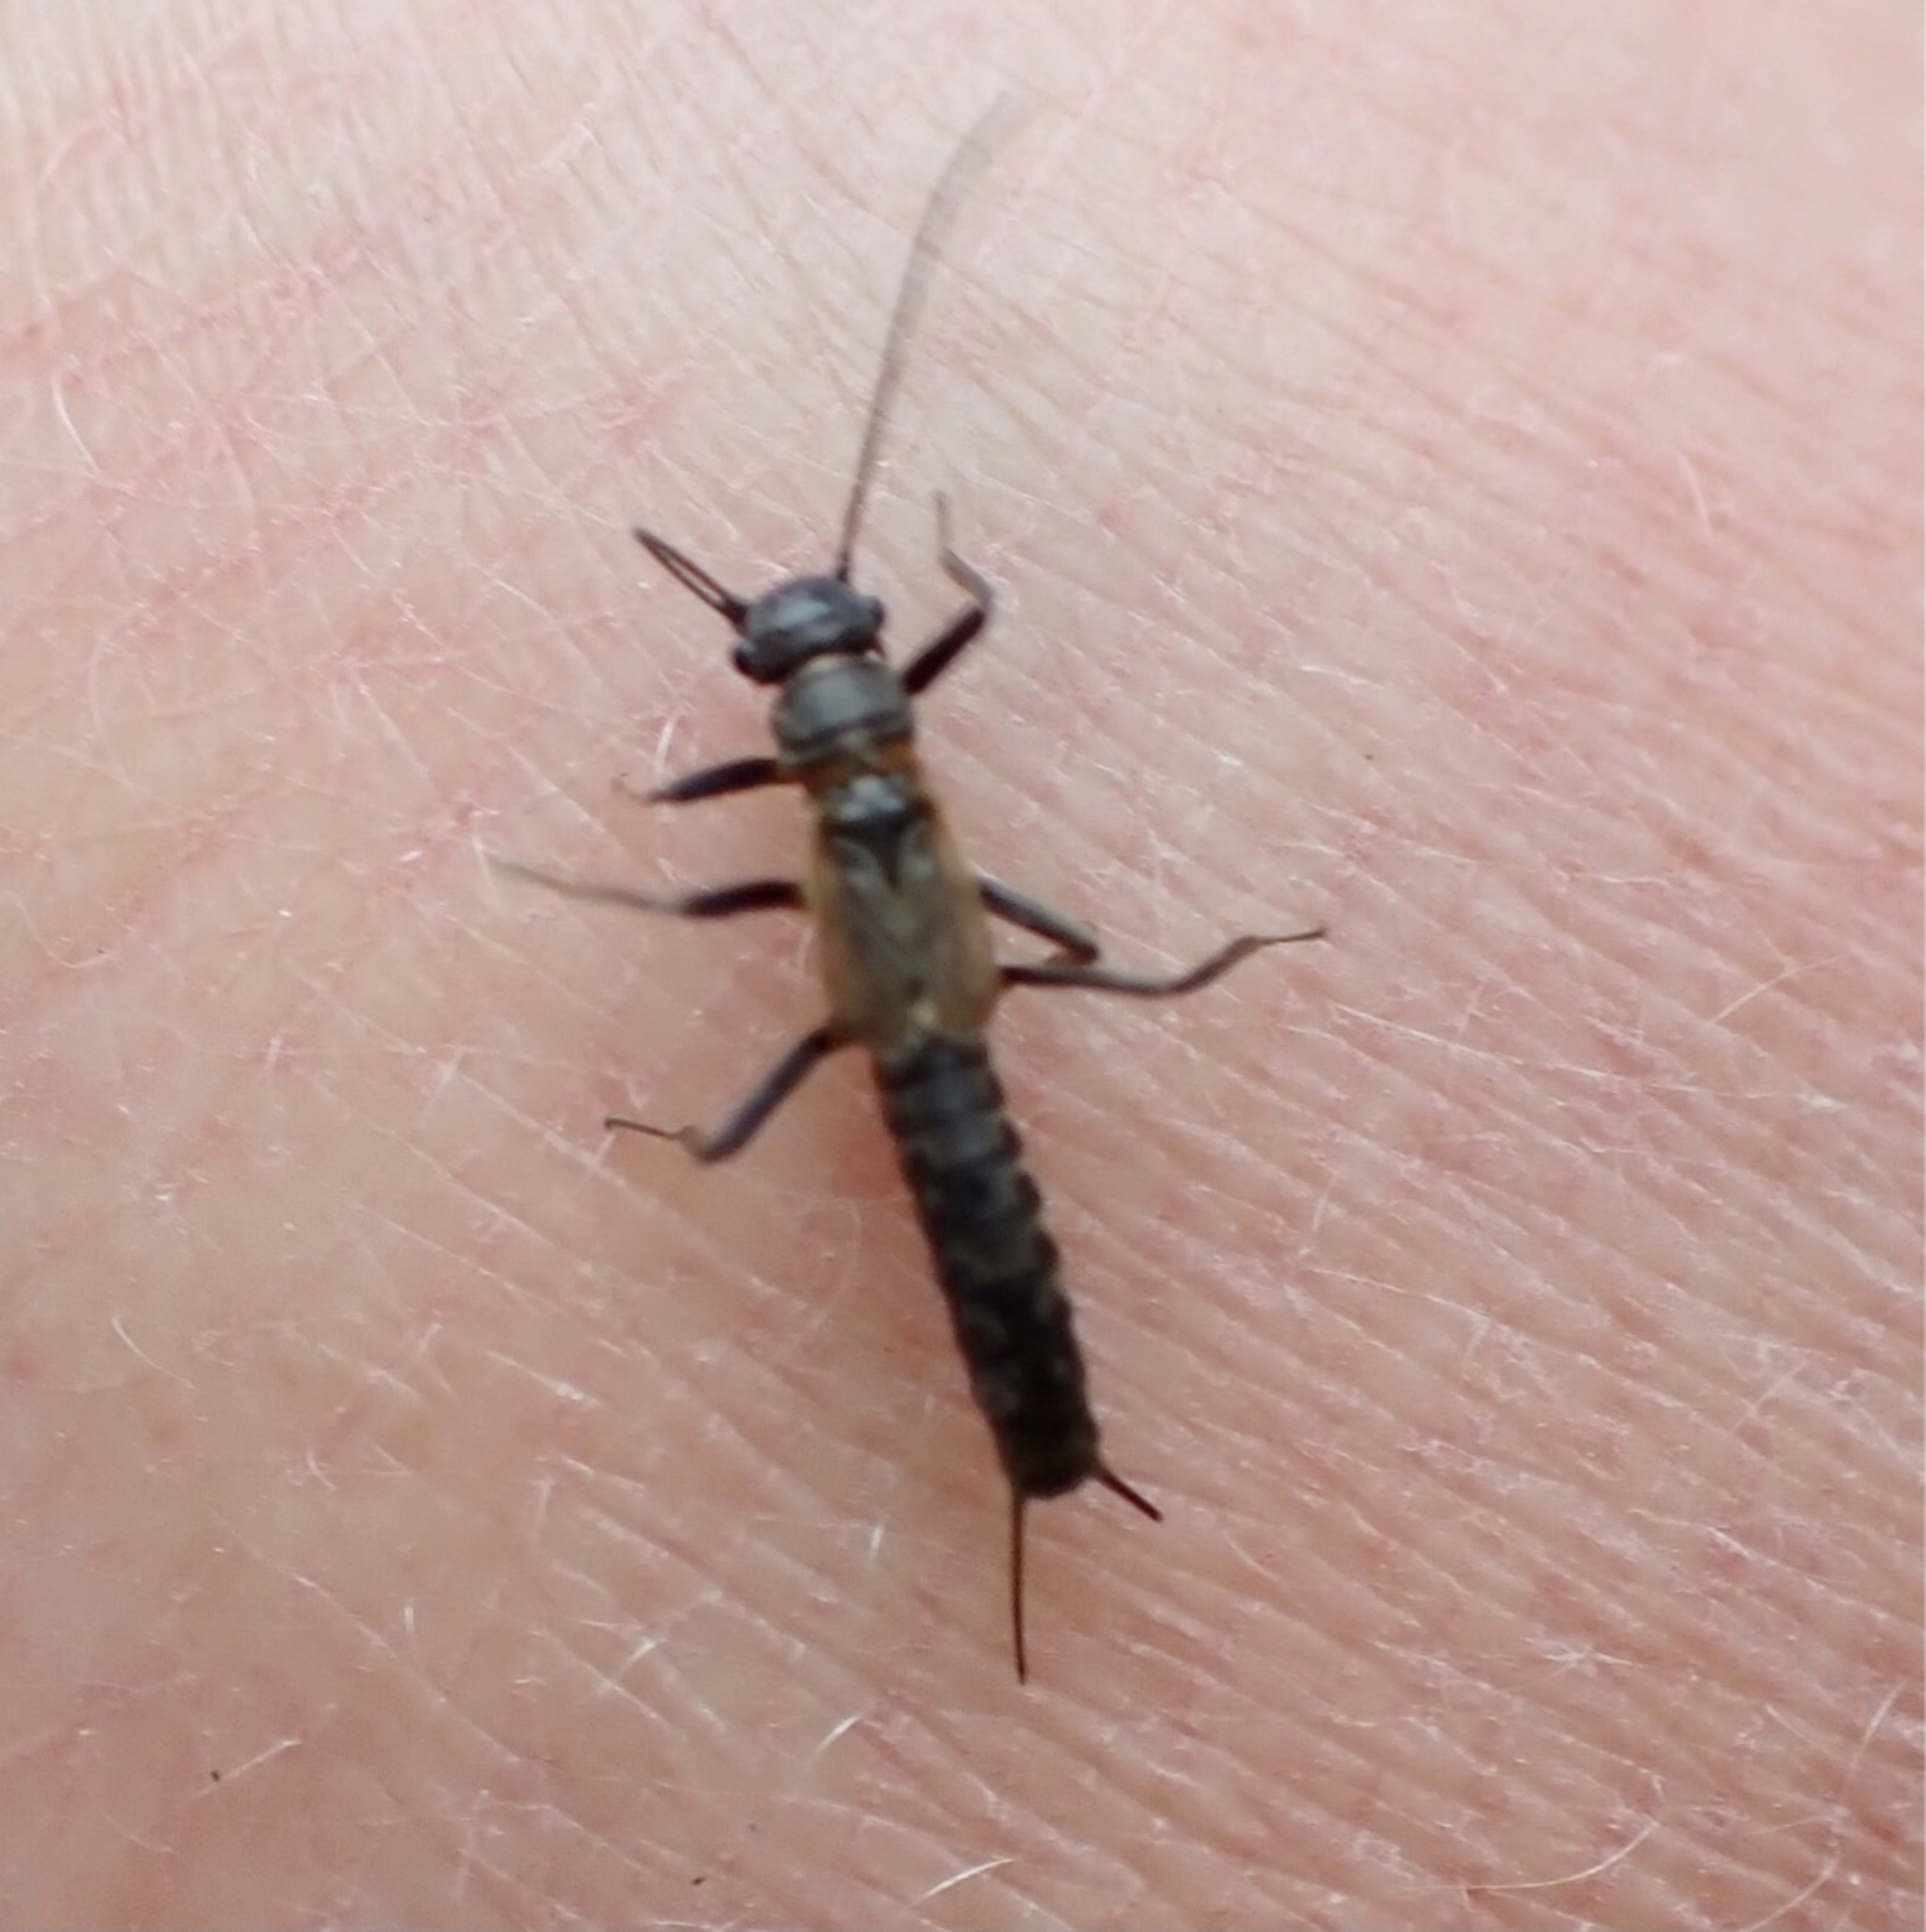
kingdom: Animalia
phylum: Arthropoda
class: Insecta
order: Plecoptera
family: Leuctridae
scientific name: Leuctridae
